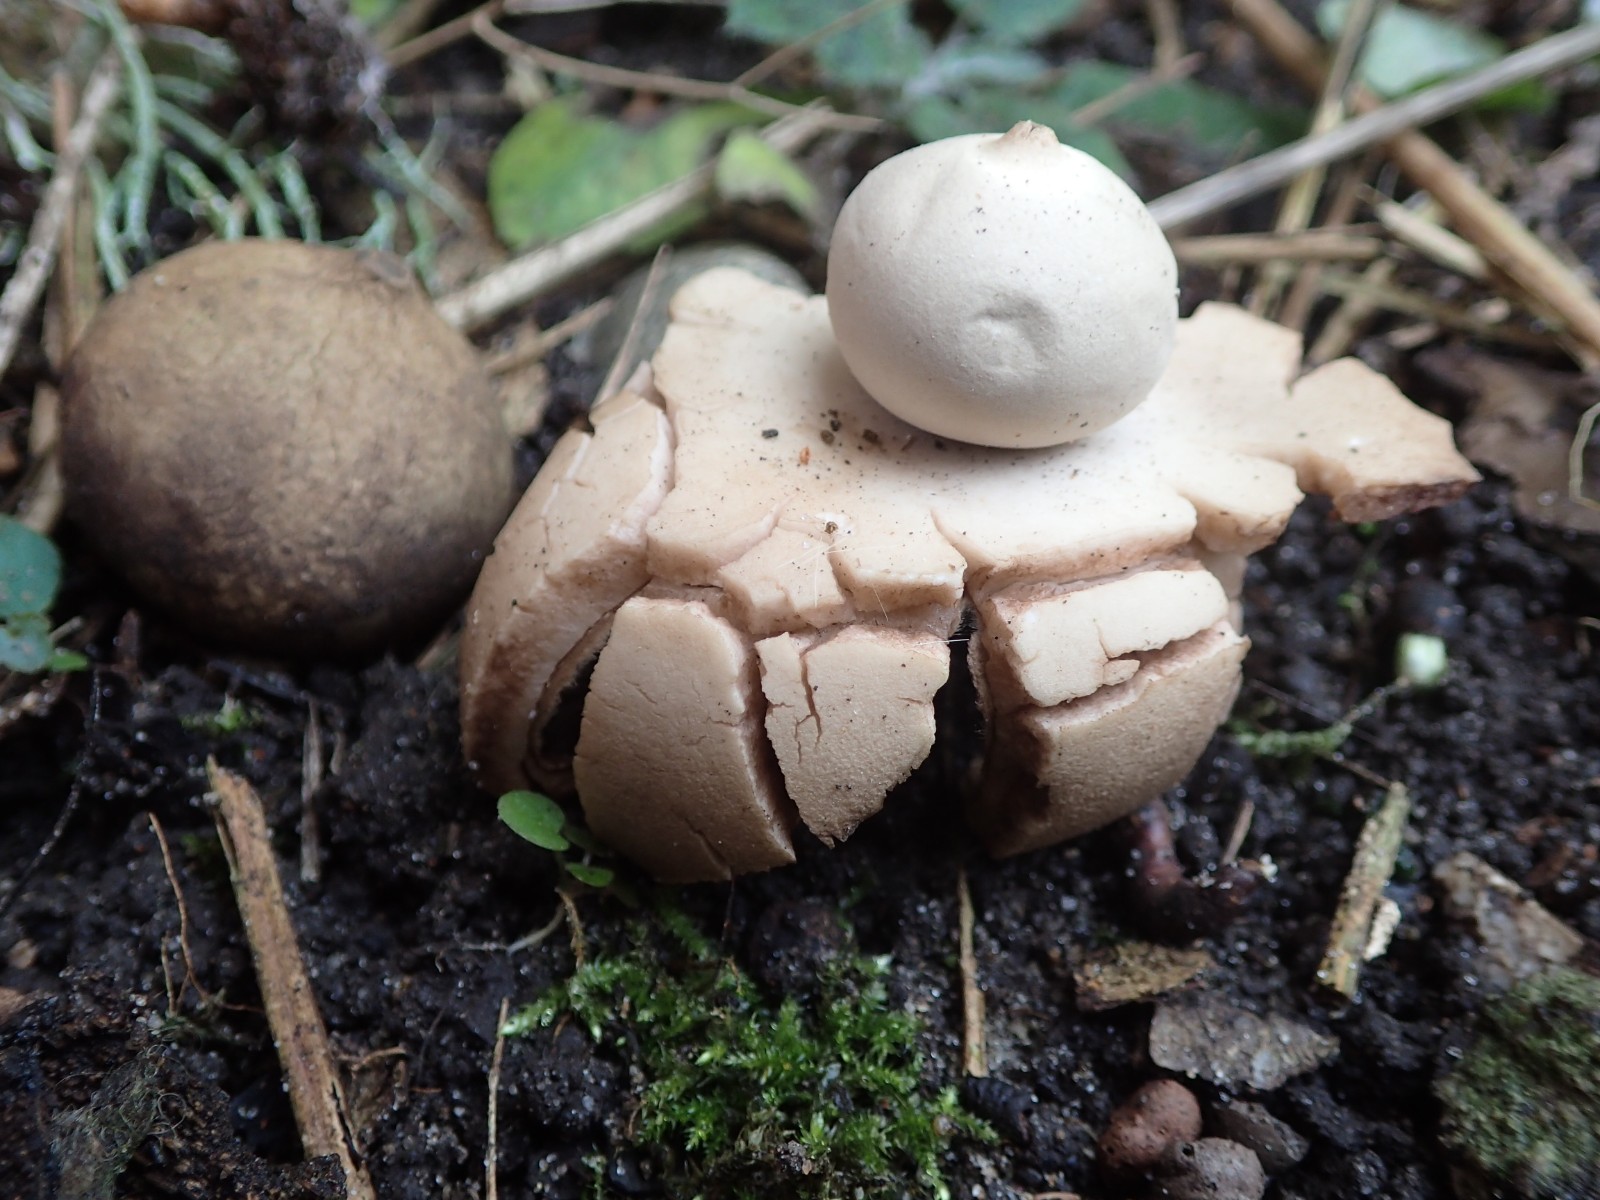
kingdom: Fungi
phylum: Basidiomycota
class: Agaricomycetes
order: Geastrales
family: Geastraceae
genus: Geastrum
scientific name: Geastrum michelianum
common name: kødet stjernebold
